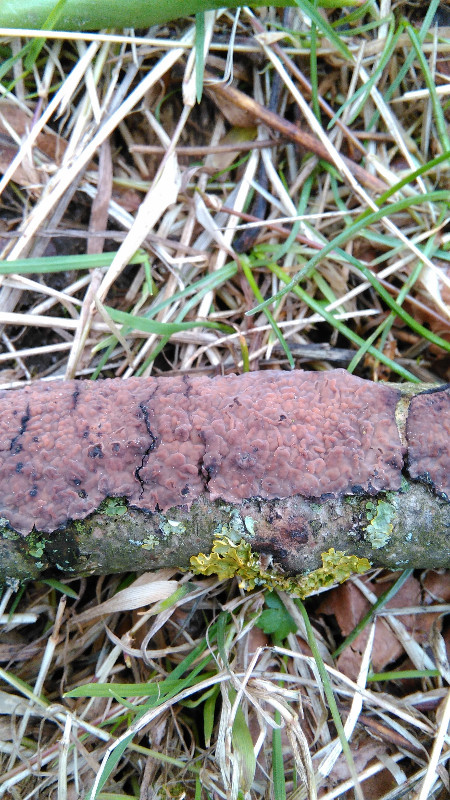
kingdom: Fungi
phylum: Basidiomycota
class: Agaricomycetes
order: Russulales
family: Peniophoraceae
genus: Peniophora
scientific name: Peniophora quercina
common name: ege-voksskind
